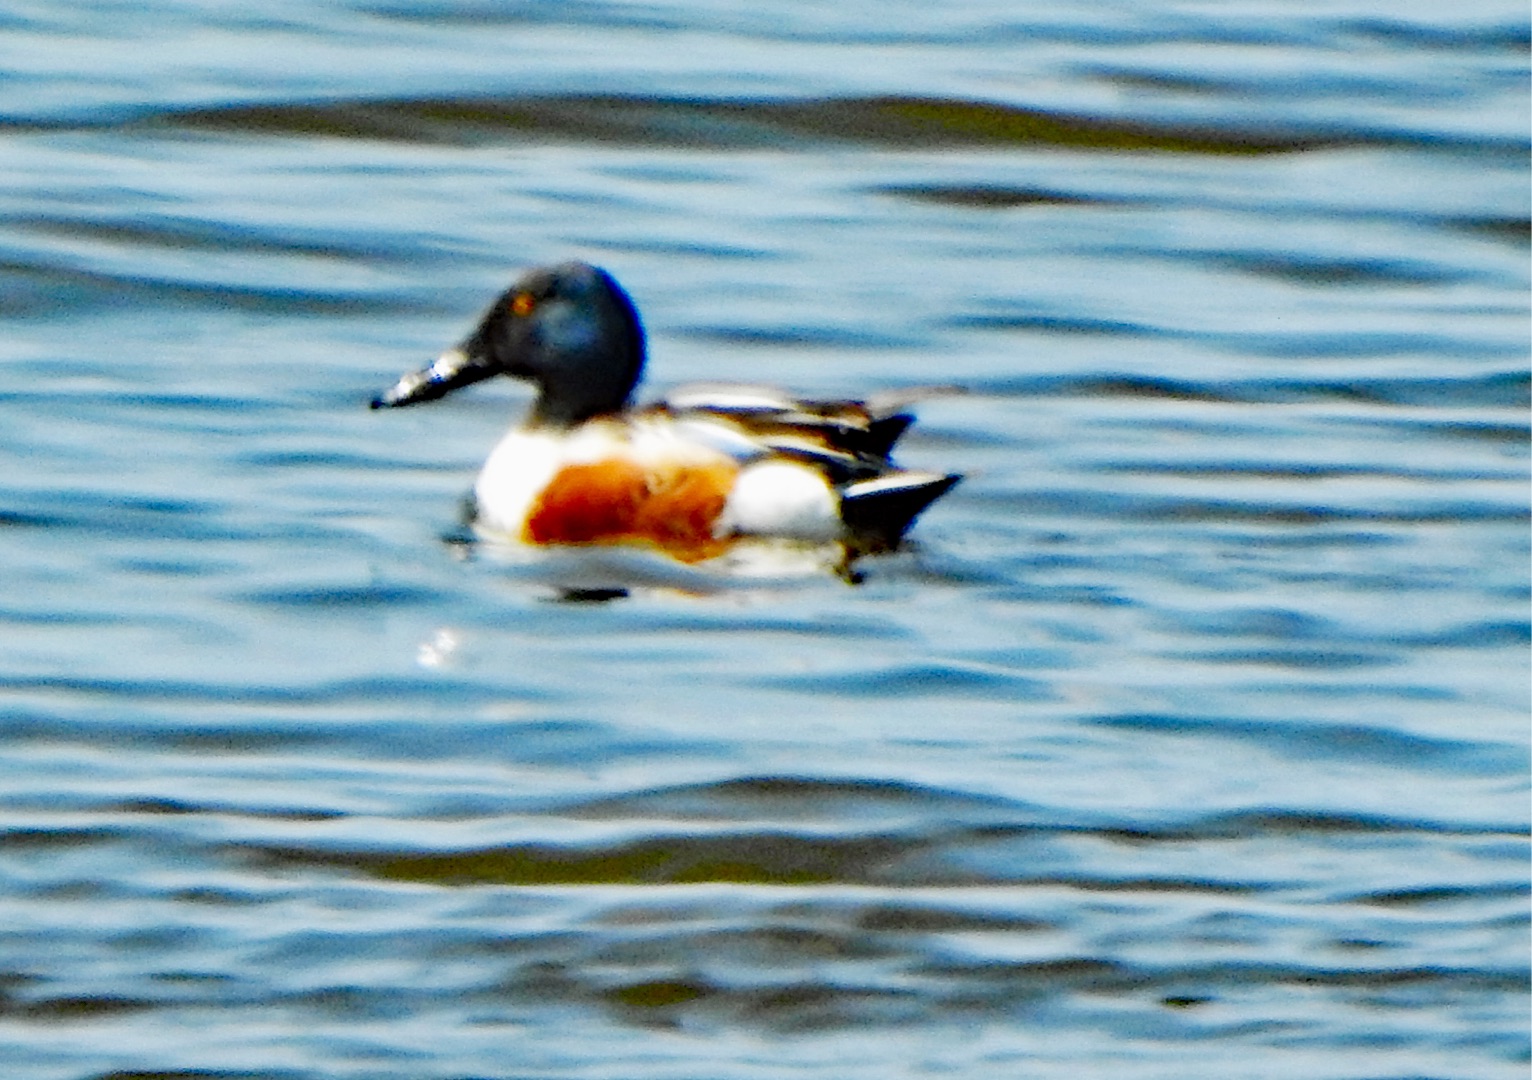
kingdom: Animalia
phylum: Chordata
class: Aves
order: Anseriformes
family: Anatidae
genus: Spatula
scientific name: Spatula clypeata
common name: Skeand
